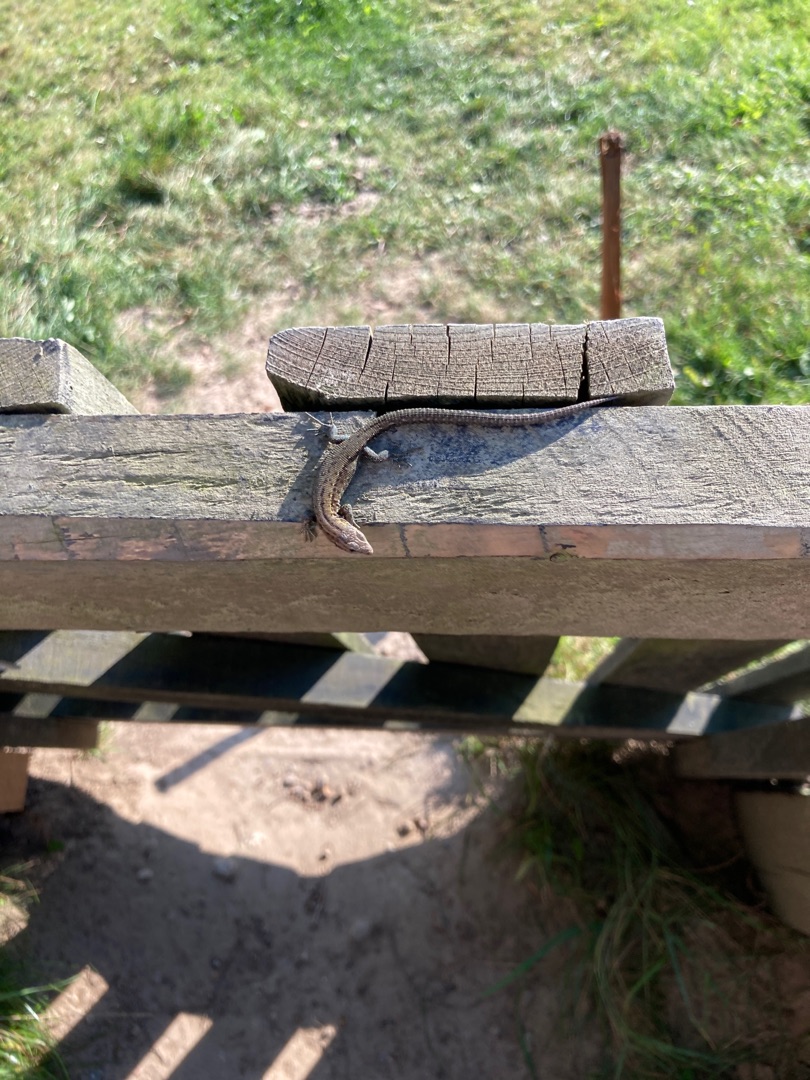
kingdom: Animalia
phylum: Chordata
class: Squamata
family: Lacertidae
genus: Zootoca
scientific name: Zootoca vivipara
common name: Skovfirben
